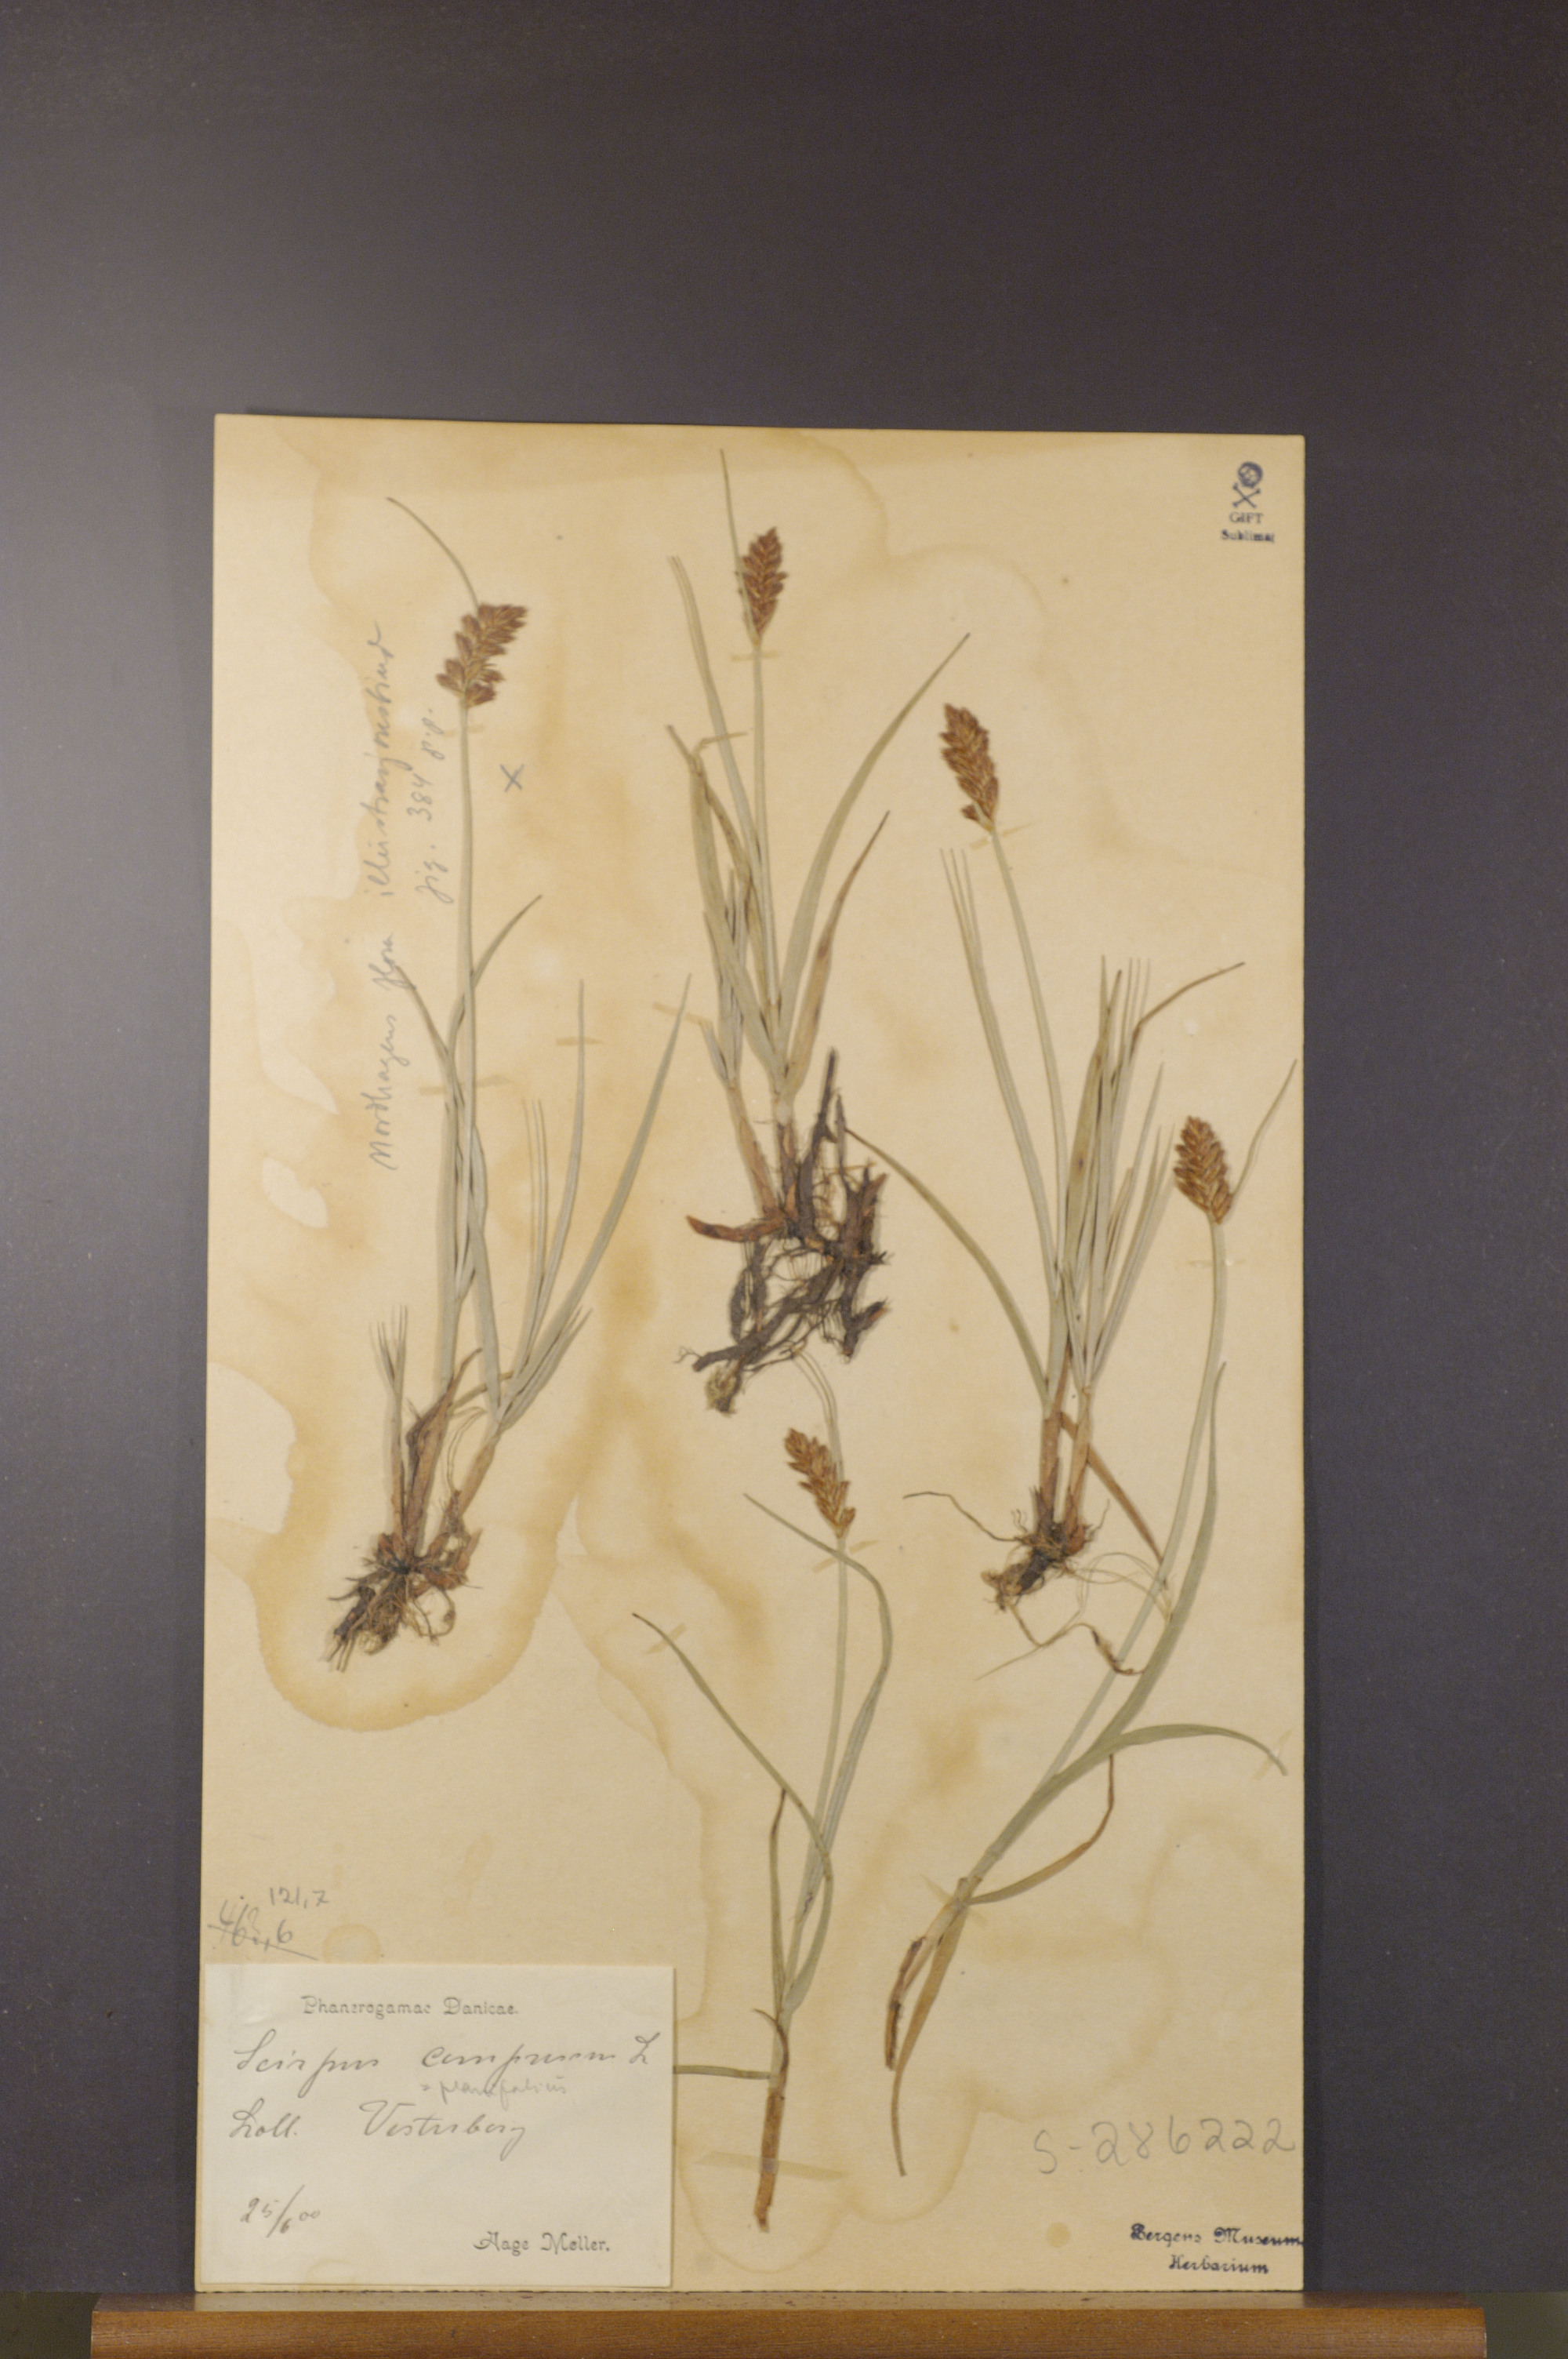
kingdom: Plantae
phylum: Tracheophyta
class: Liliopsida
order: Poales
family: Cyperaceae
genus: Blysmus
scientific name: Blysmus compressus
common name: Flat-sedge
